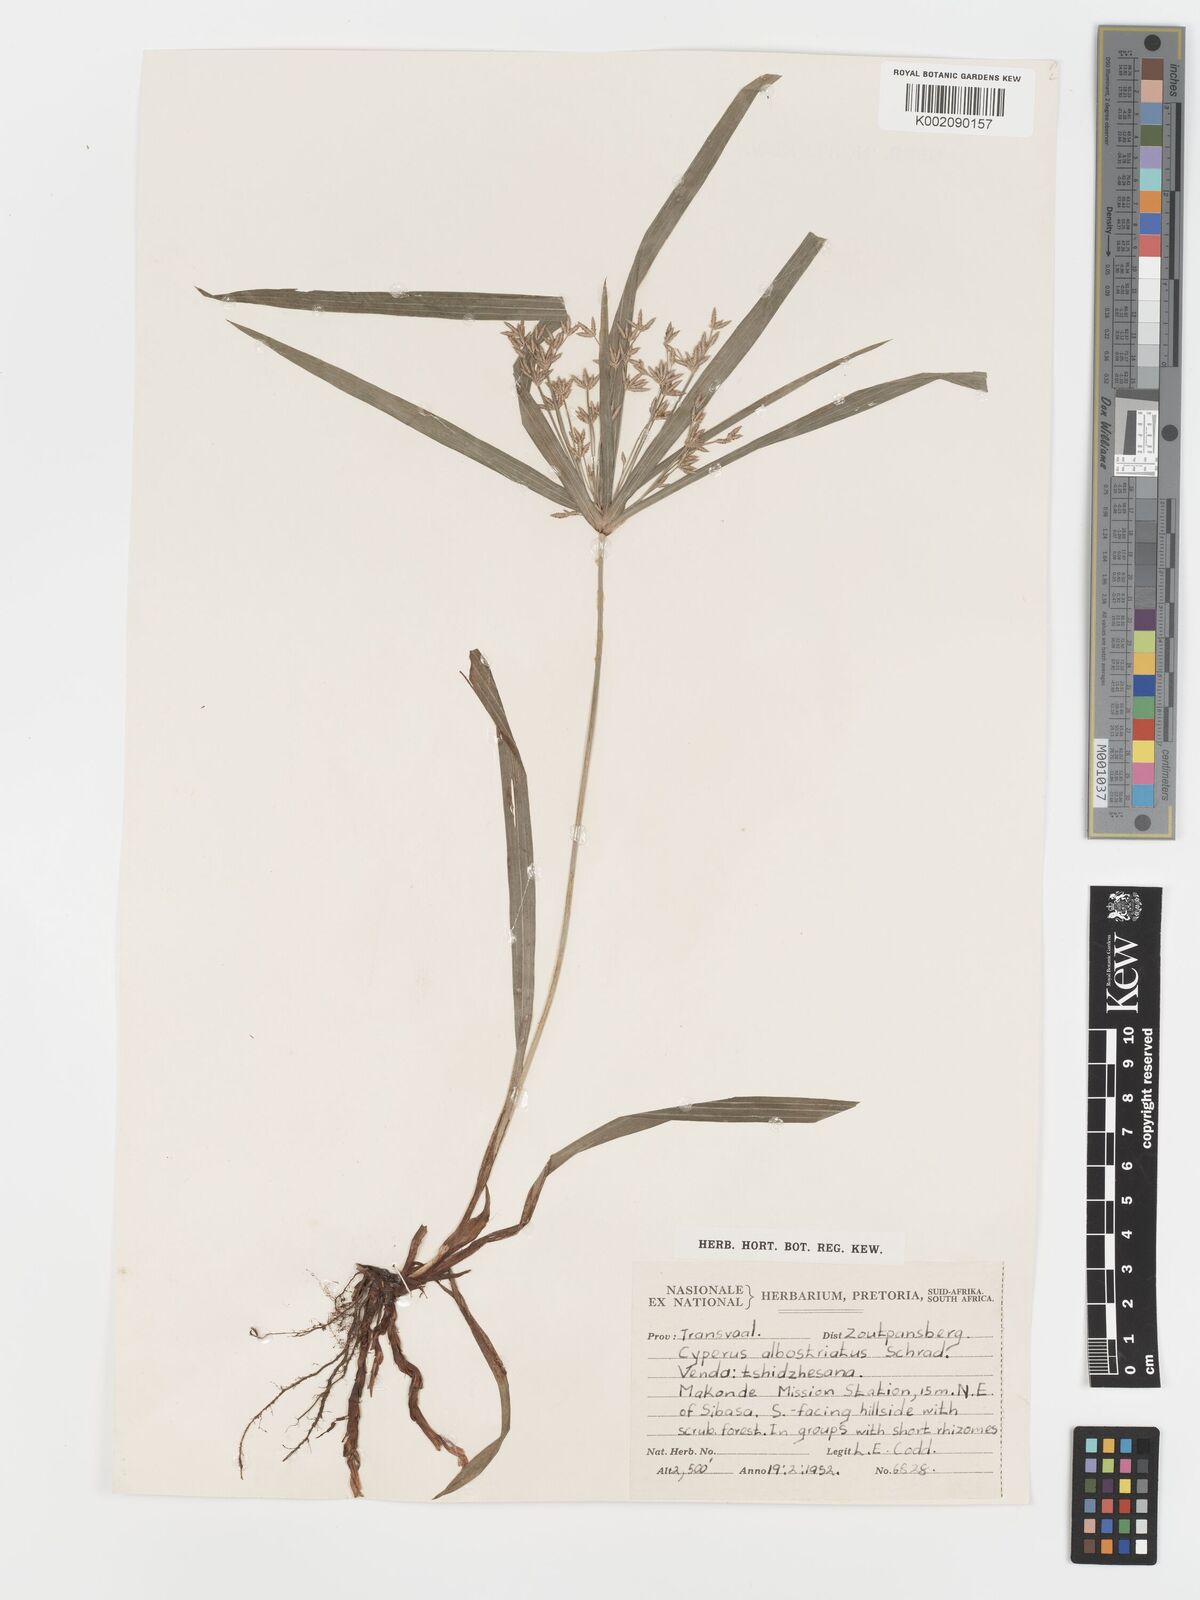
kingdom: Plantae
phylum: Tracheophyta
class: Liliopsida
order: Poales
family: Cyperaceae
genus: Cyperus
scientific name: Cyperus albostriatus
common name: Dwarf umbrella-grass
